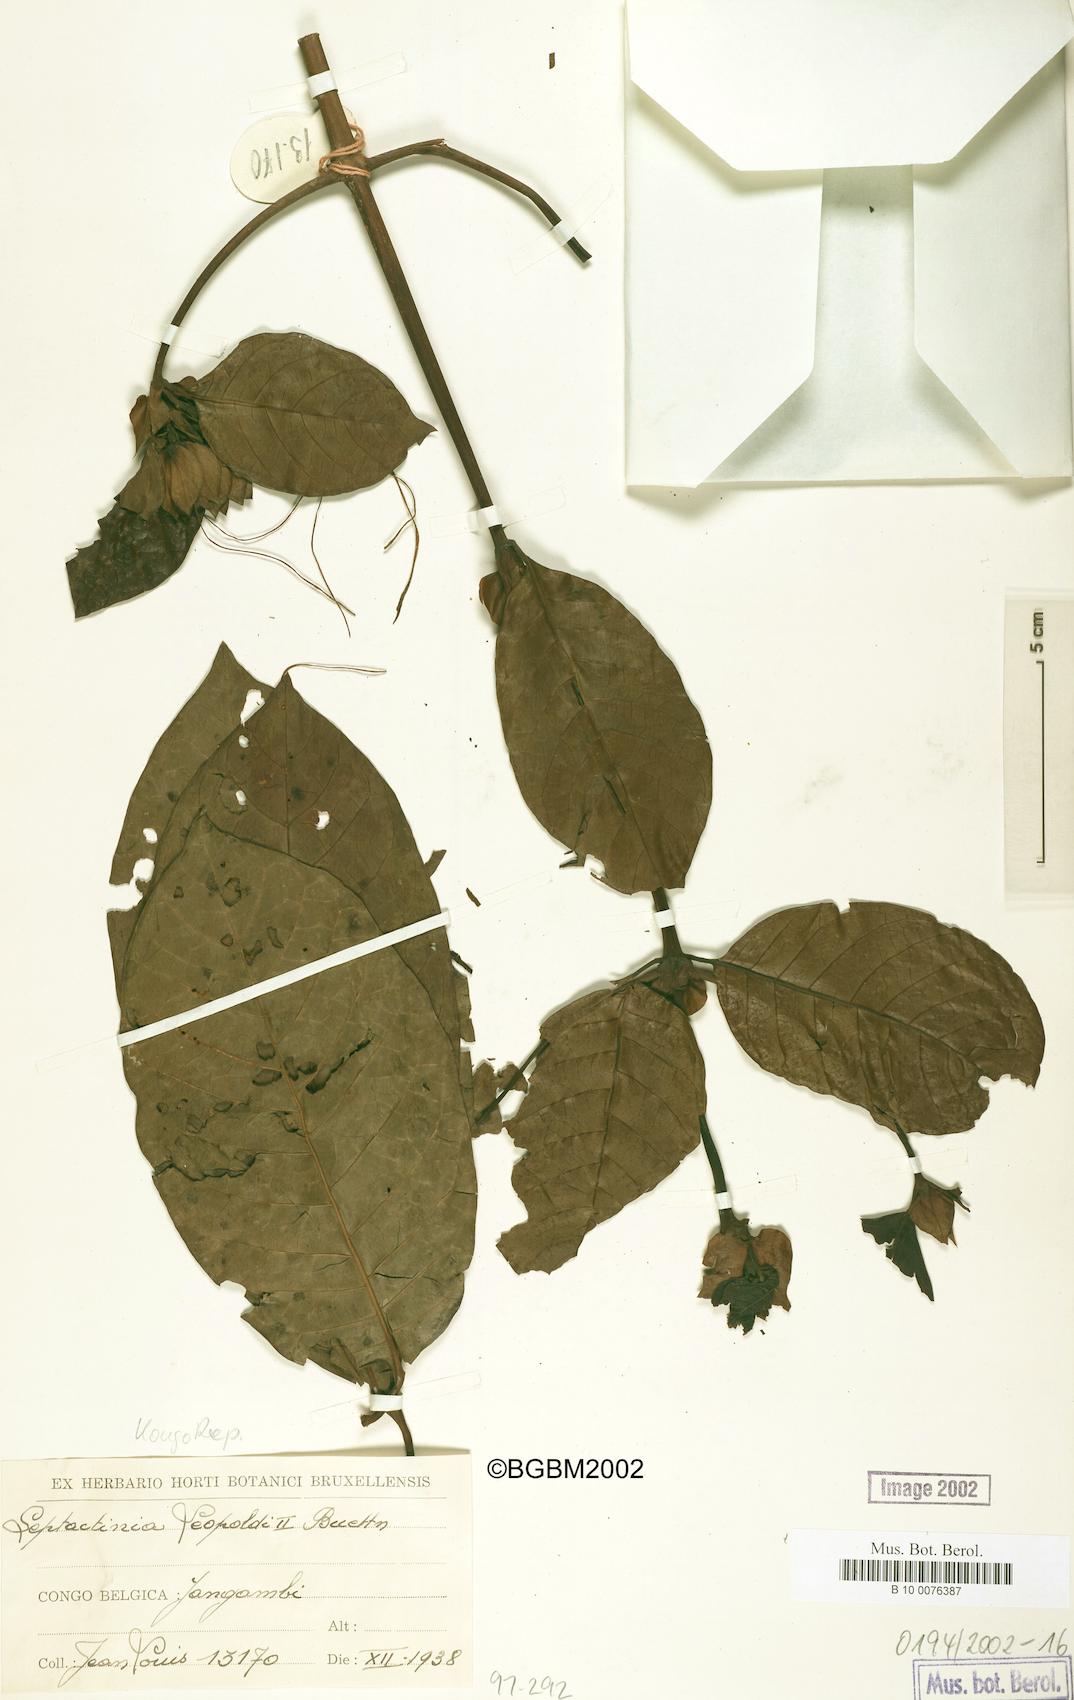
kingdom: Plantae
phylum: Tracheophyta
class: Magnoliopsida
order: Gentianales
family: Rubiaceae
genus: Leptactina
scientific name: Leptactina formosa
